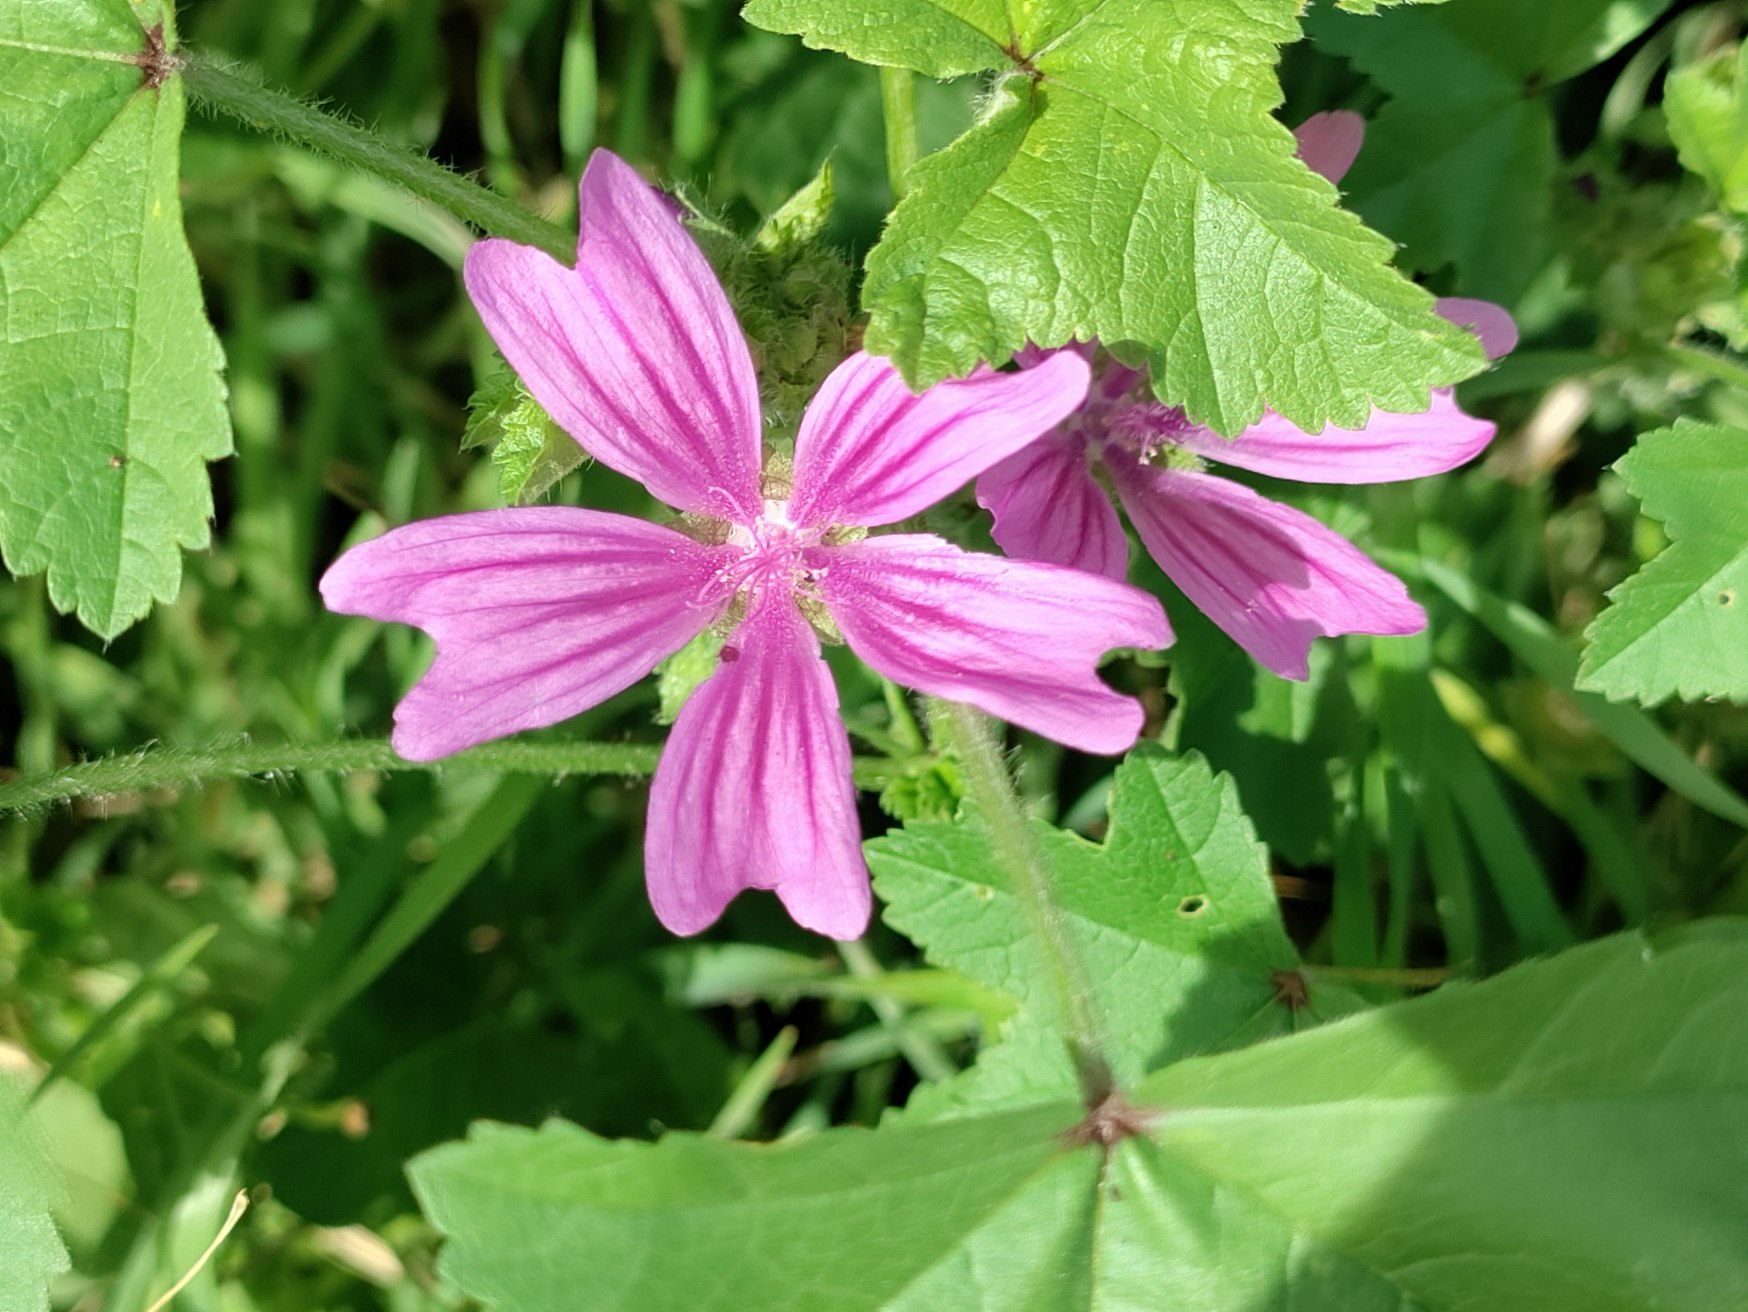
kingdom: Plantae
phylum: Tracheophyta
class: Magnoliopsida
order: Malvales
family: Malvaceae
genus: Malva
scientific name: Malva sylvestris
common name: Almindelig katost
